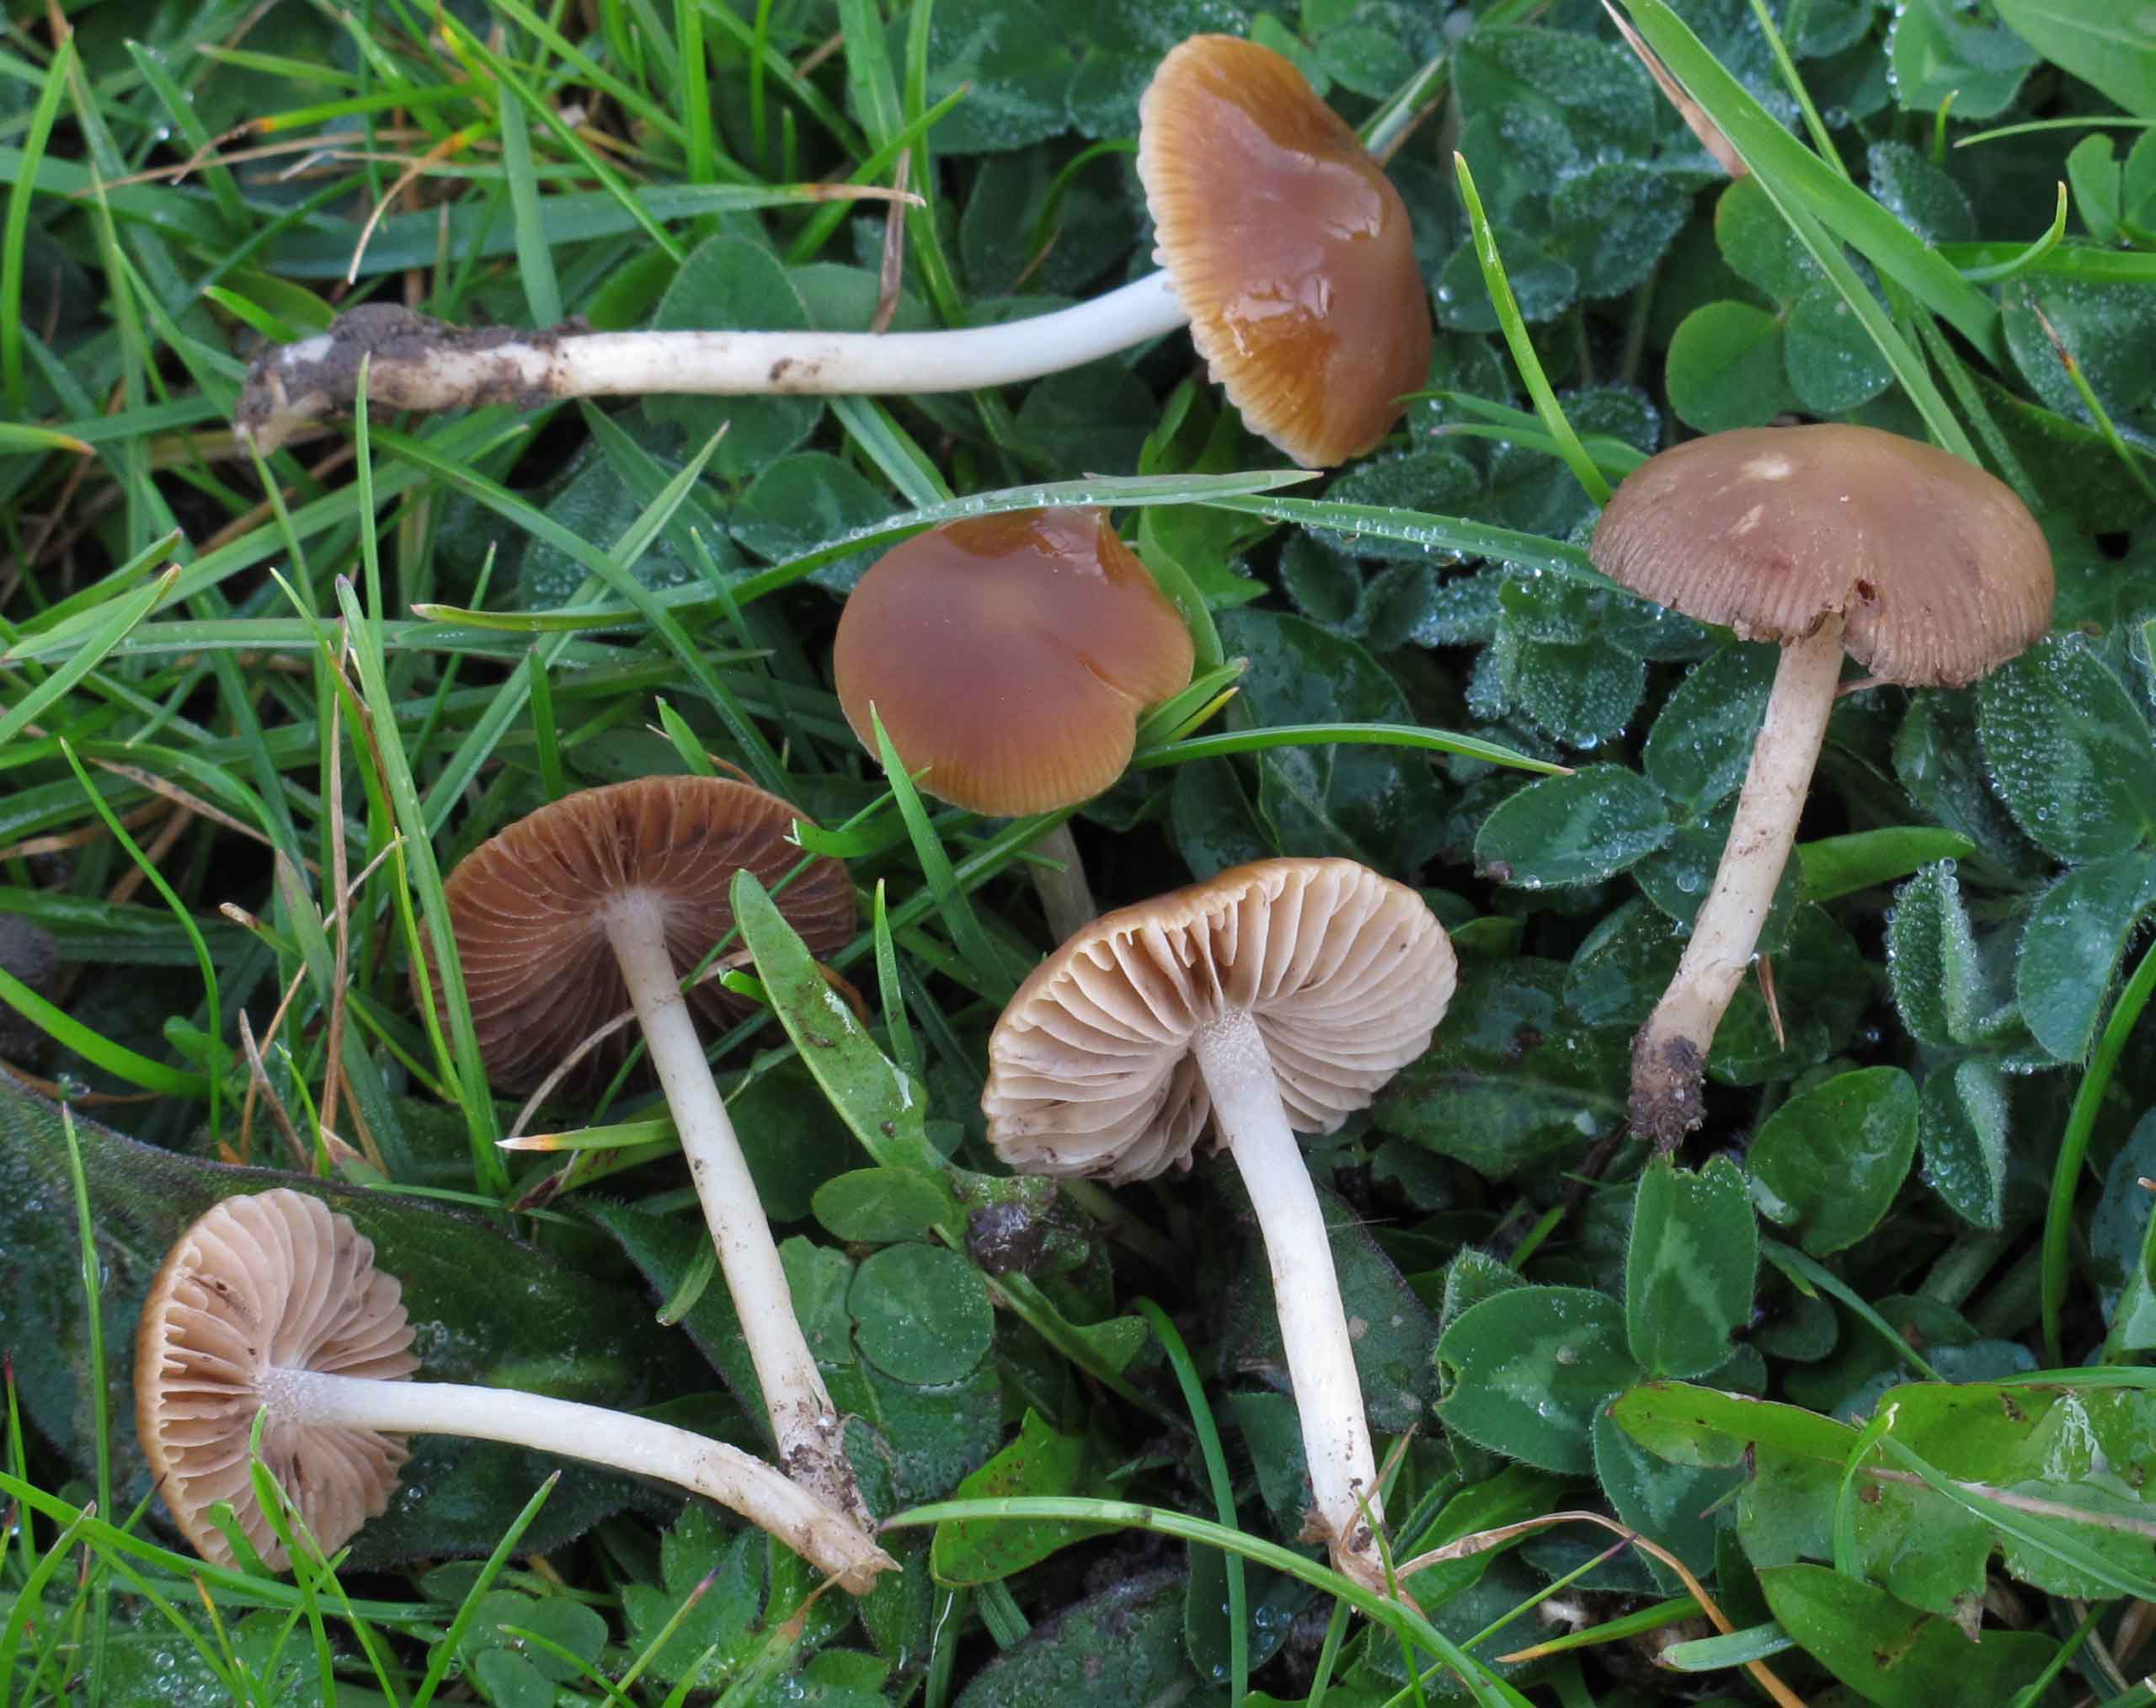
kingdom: Fungi
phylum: Basidiomycota
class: Agaricomycetes
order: Agaricales
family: Psathyrellaceae
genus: Psathyrella
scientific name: Psathyrella clivensis
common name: eng-mørkhat
